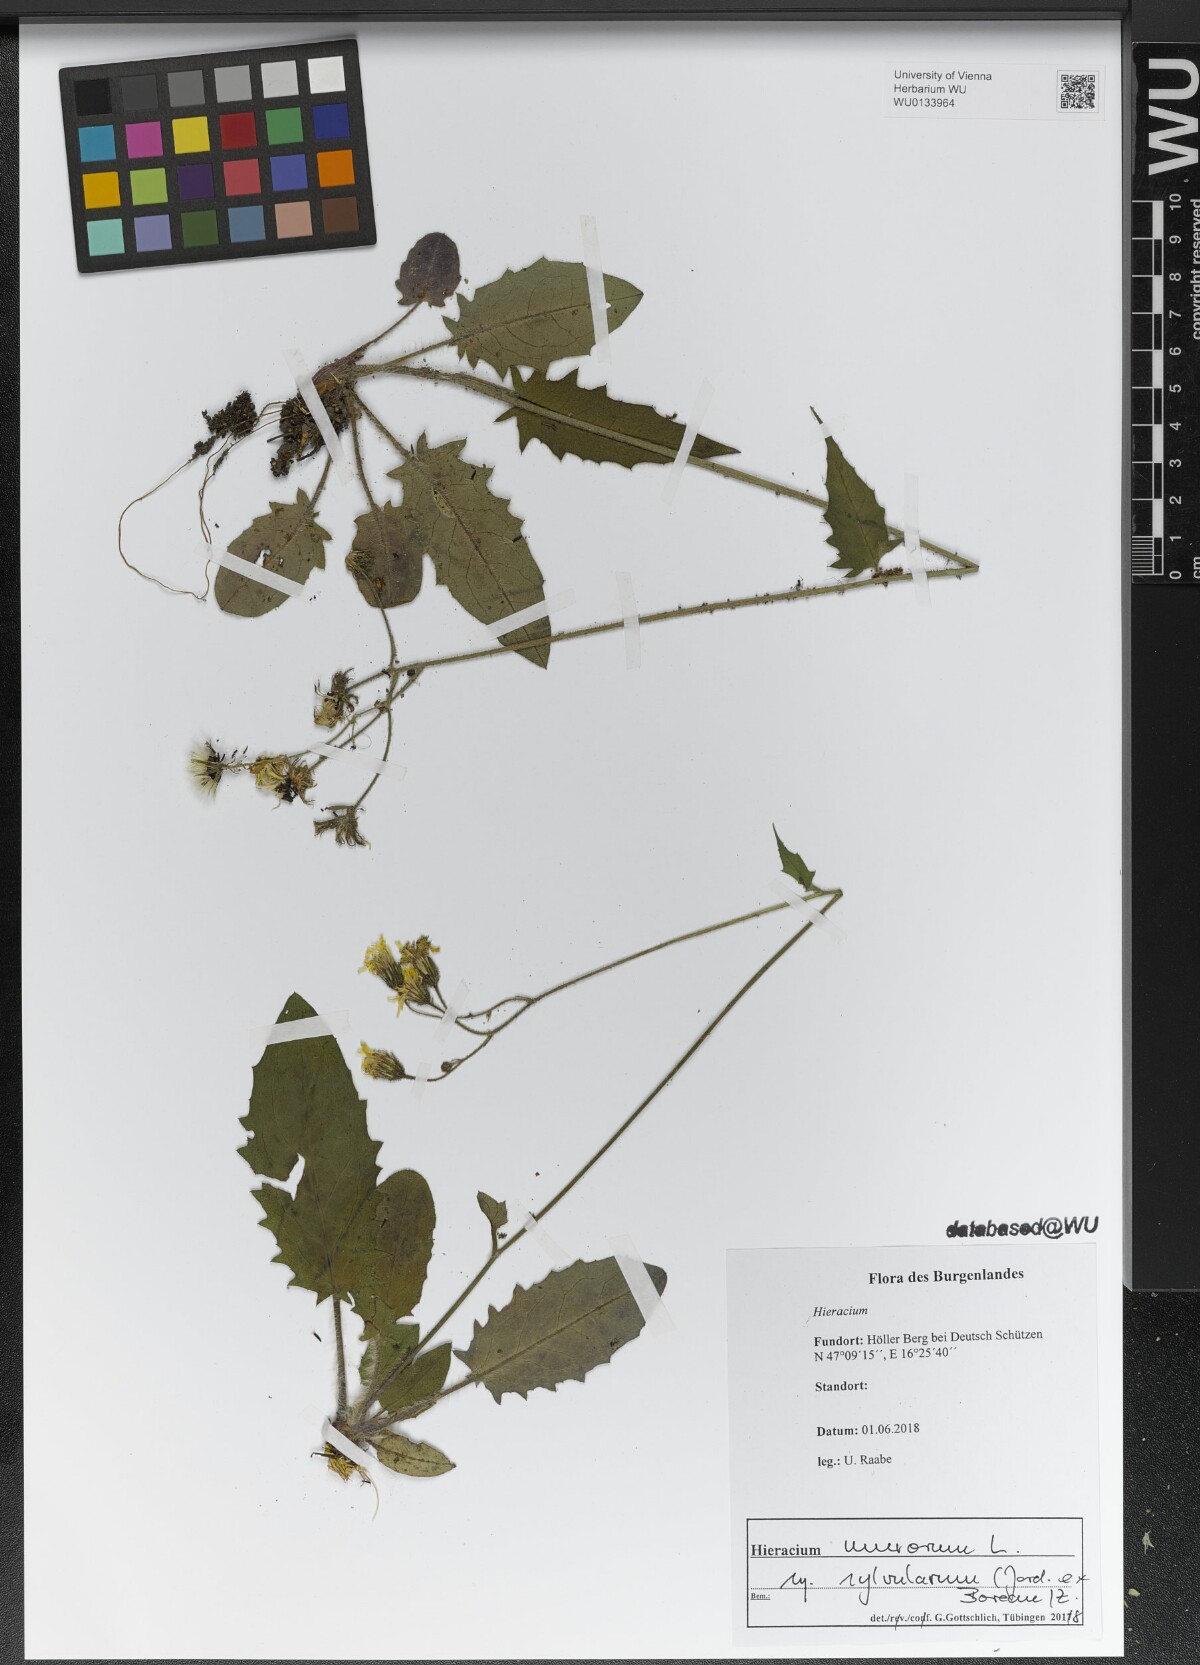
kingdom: Plantae
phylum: Tracheophyta
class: Magnoliopsida
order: Asterales
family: Asteraceae
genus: Hieracium
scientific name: Hieracium murorum
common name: Wall hawkweed
